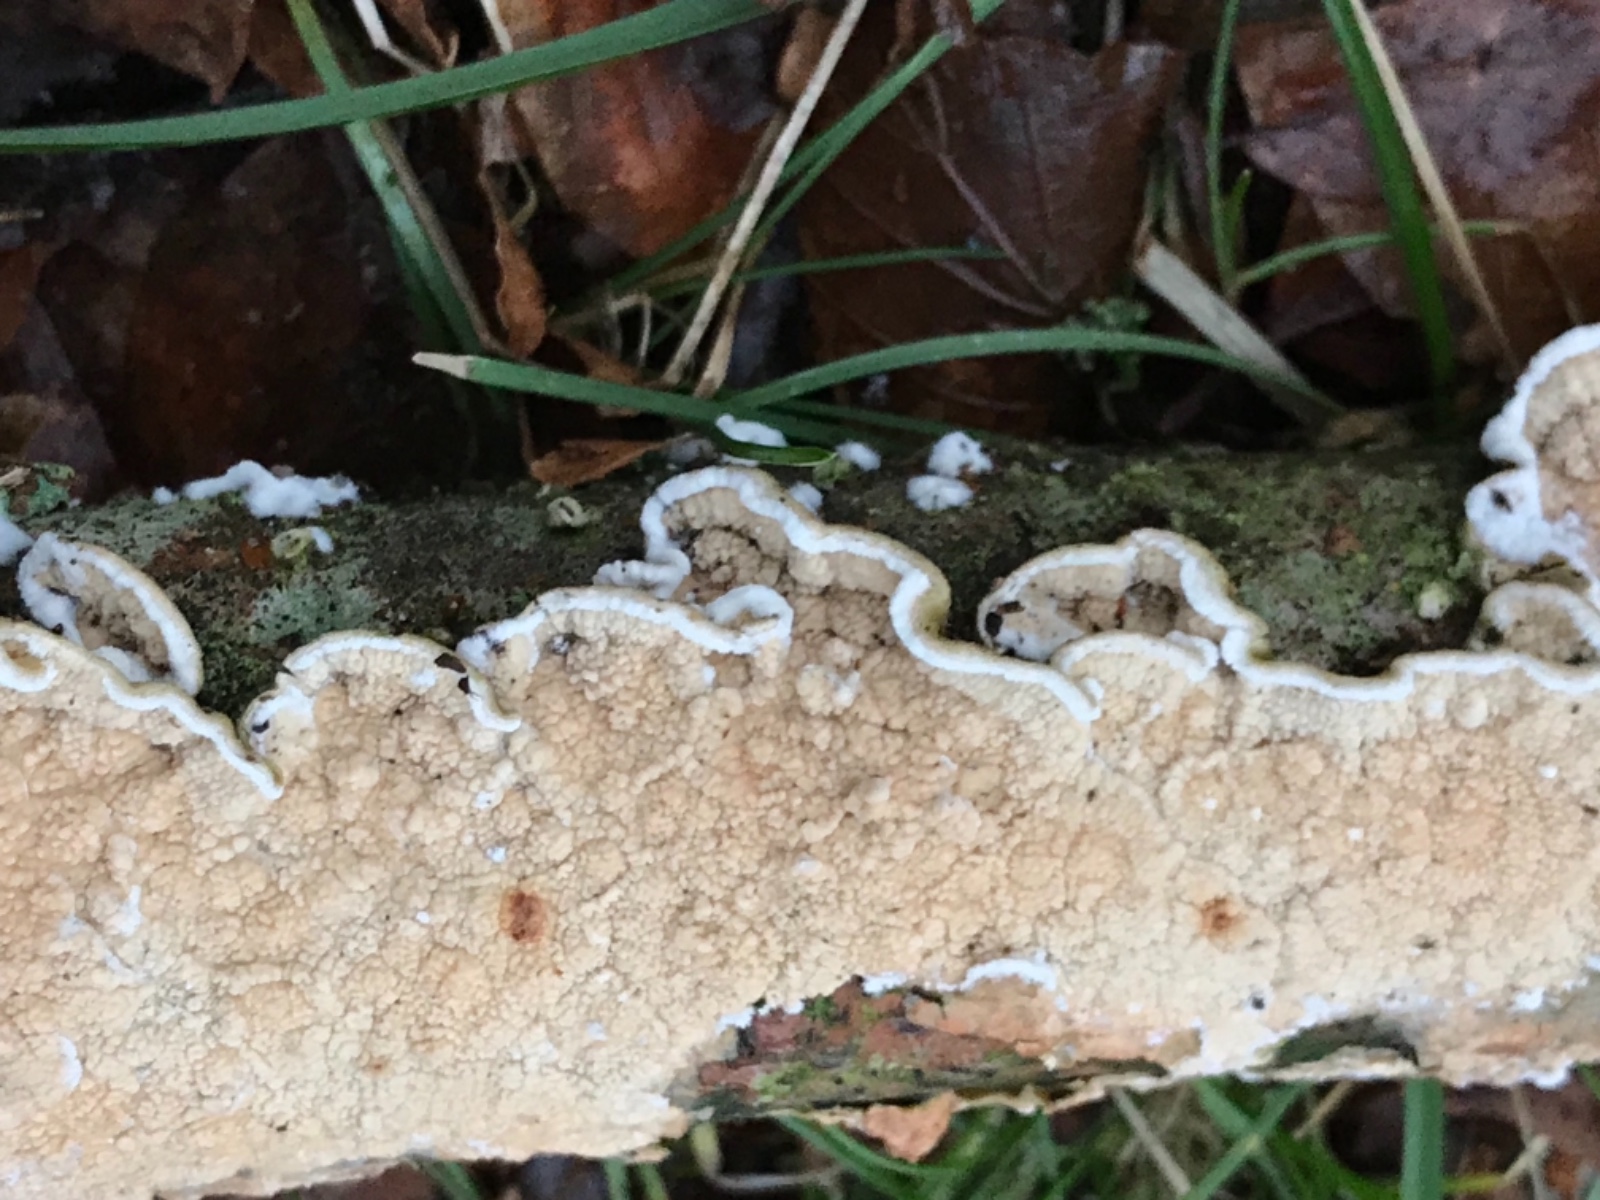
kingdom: Fungi
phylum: Basidiomycota
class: Agaricomycetes
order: Polyporales
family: Irpicaceae
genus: Byssomerulius
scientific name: Byssomerulius corium
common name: læder-åresvamp
